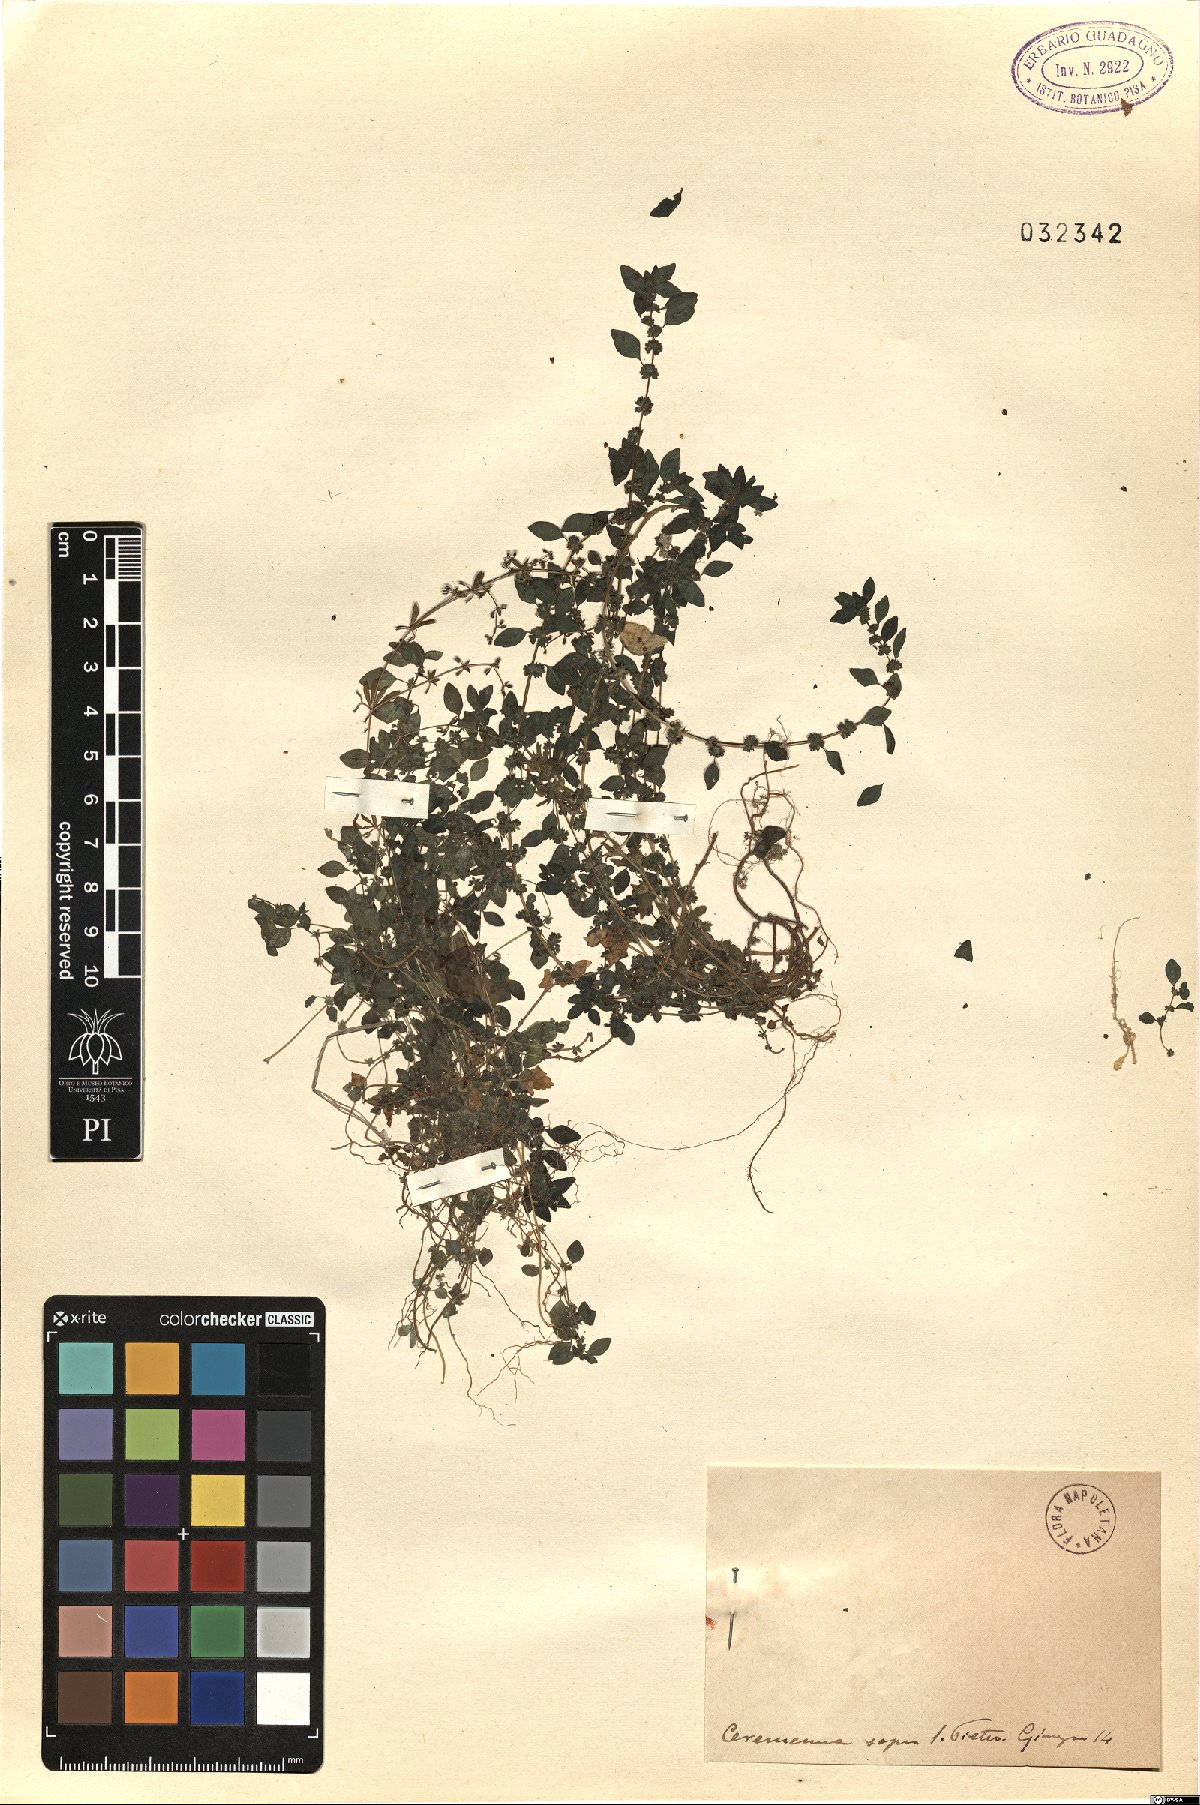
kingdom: Plantae
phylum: Tracheophyta
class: Magnoliopsida
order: Rosales
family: Urticaceae
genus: Parietaria
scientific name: Parietaria
